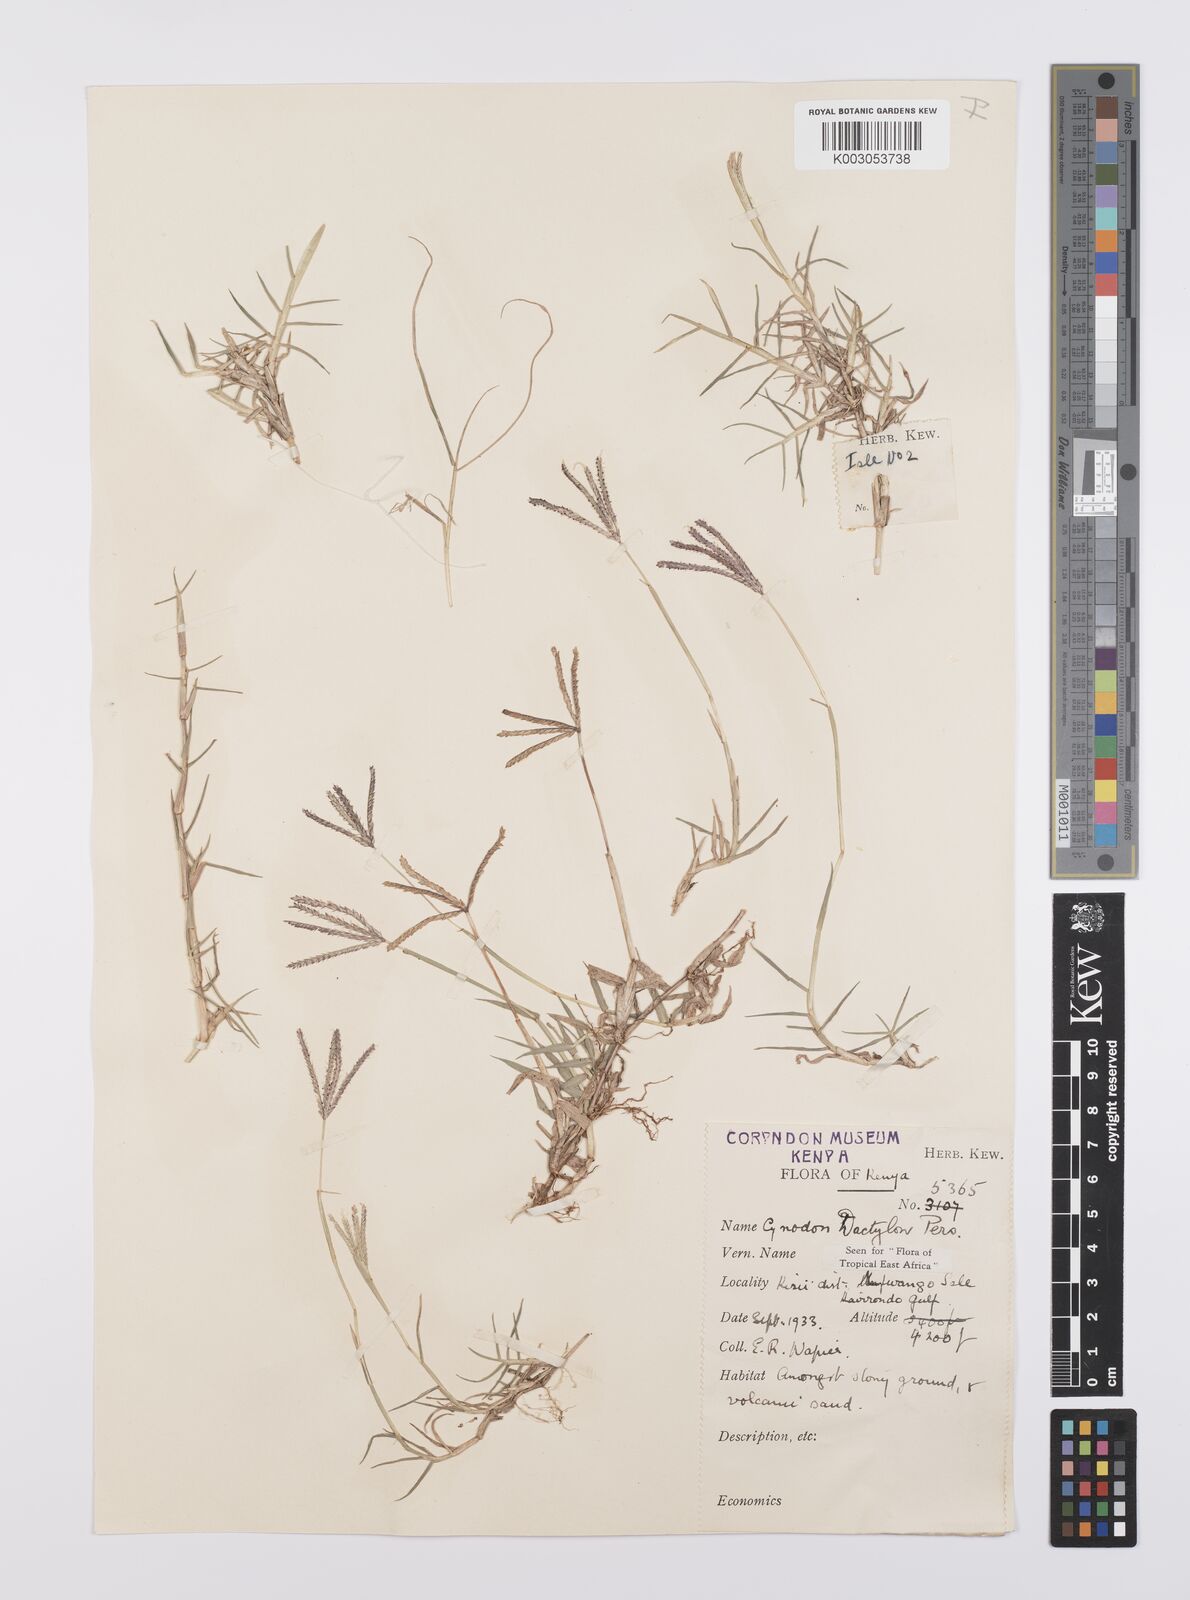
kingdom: Plantae
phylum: Tracheophyta
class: Liliopsida
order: Poales
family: Poaceae
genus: Cynodon
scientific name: Cynodon dactylon
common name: Bermuda grass
